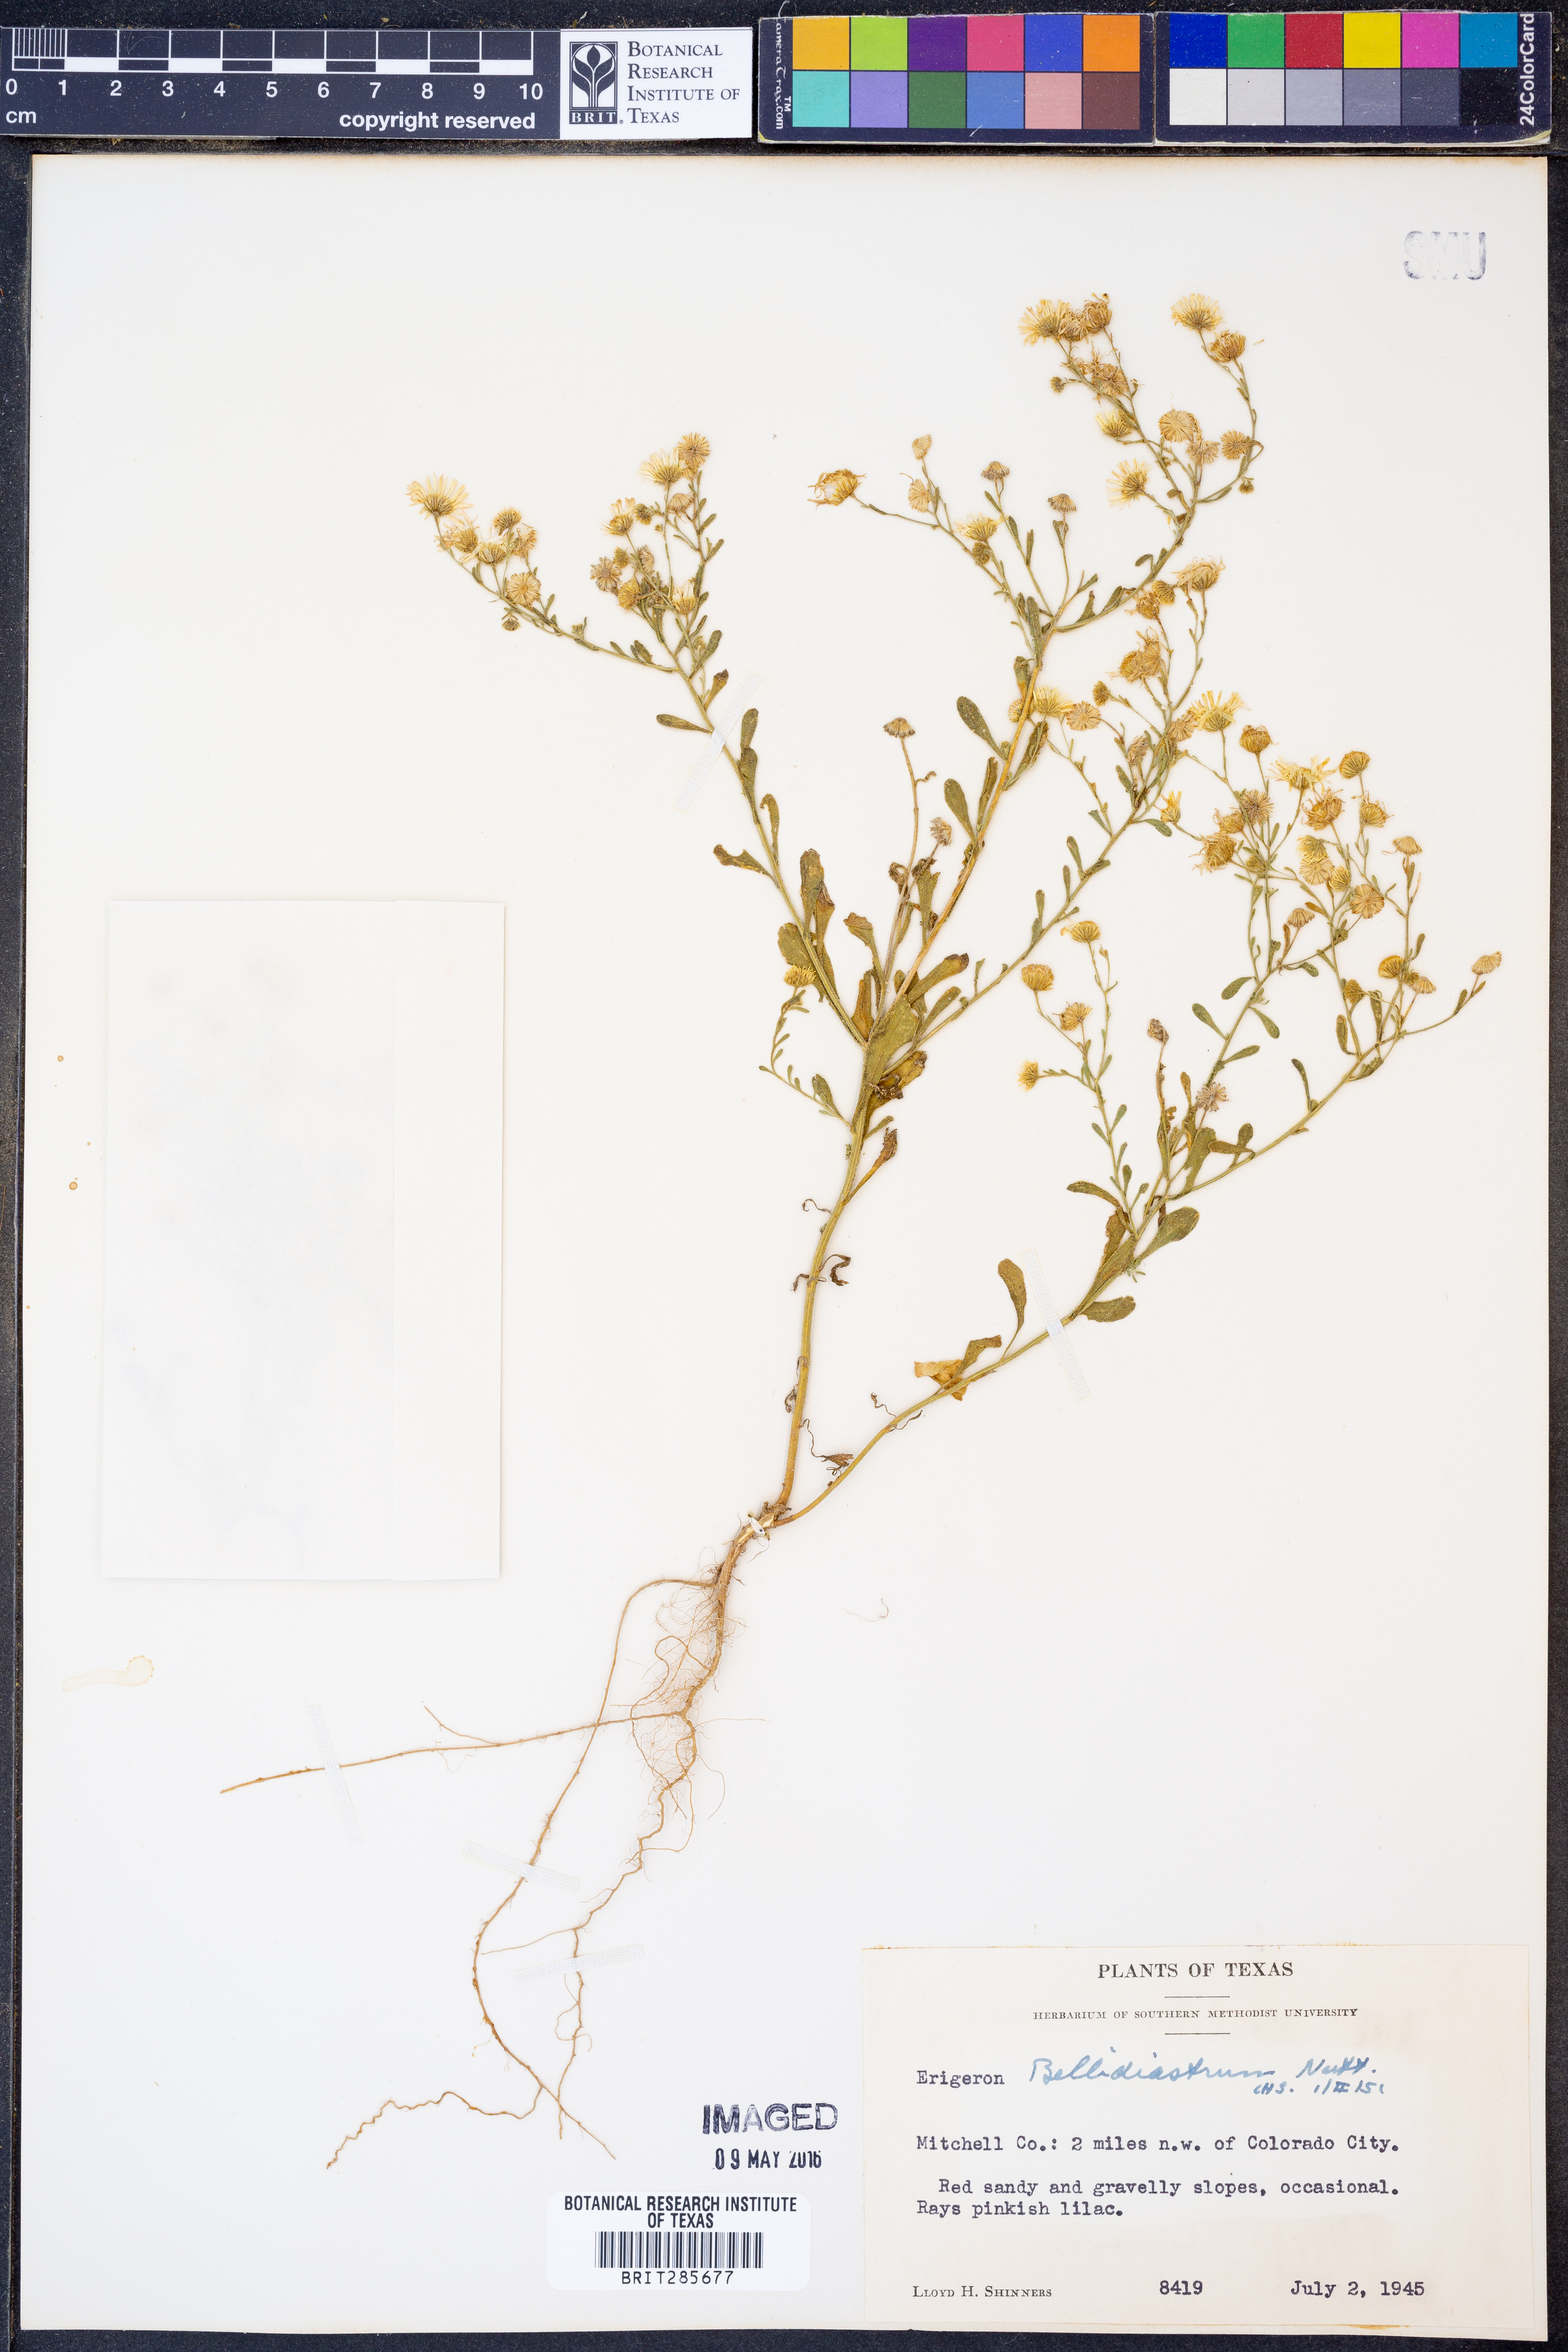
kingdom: Plantae
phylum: Tracheophyta
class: Magnoliopsida
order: Asterales
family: Asteraceae
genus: Erigeron
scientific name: Erigeron bellidiastrum
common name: Sand fleabane
